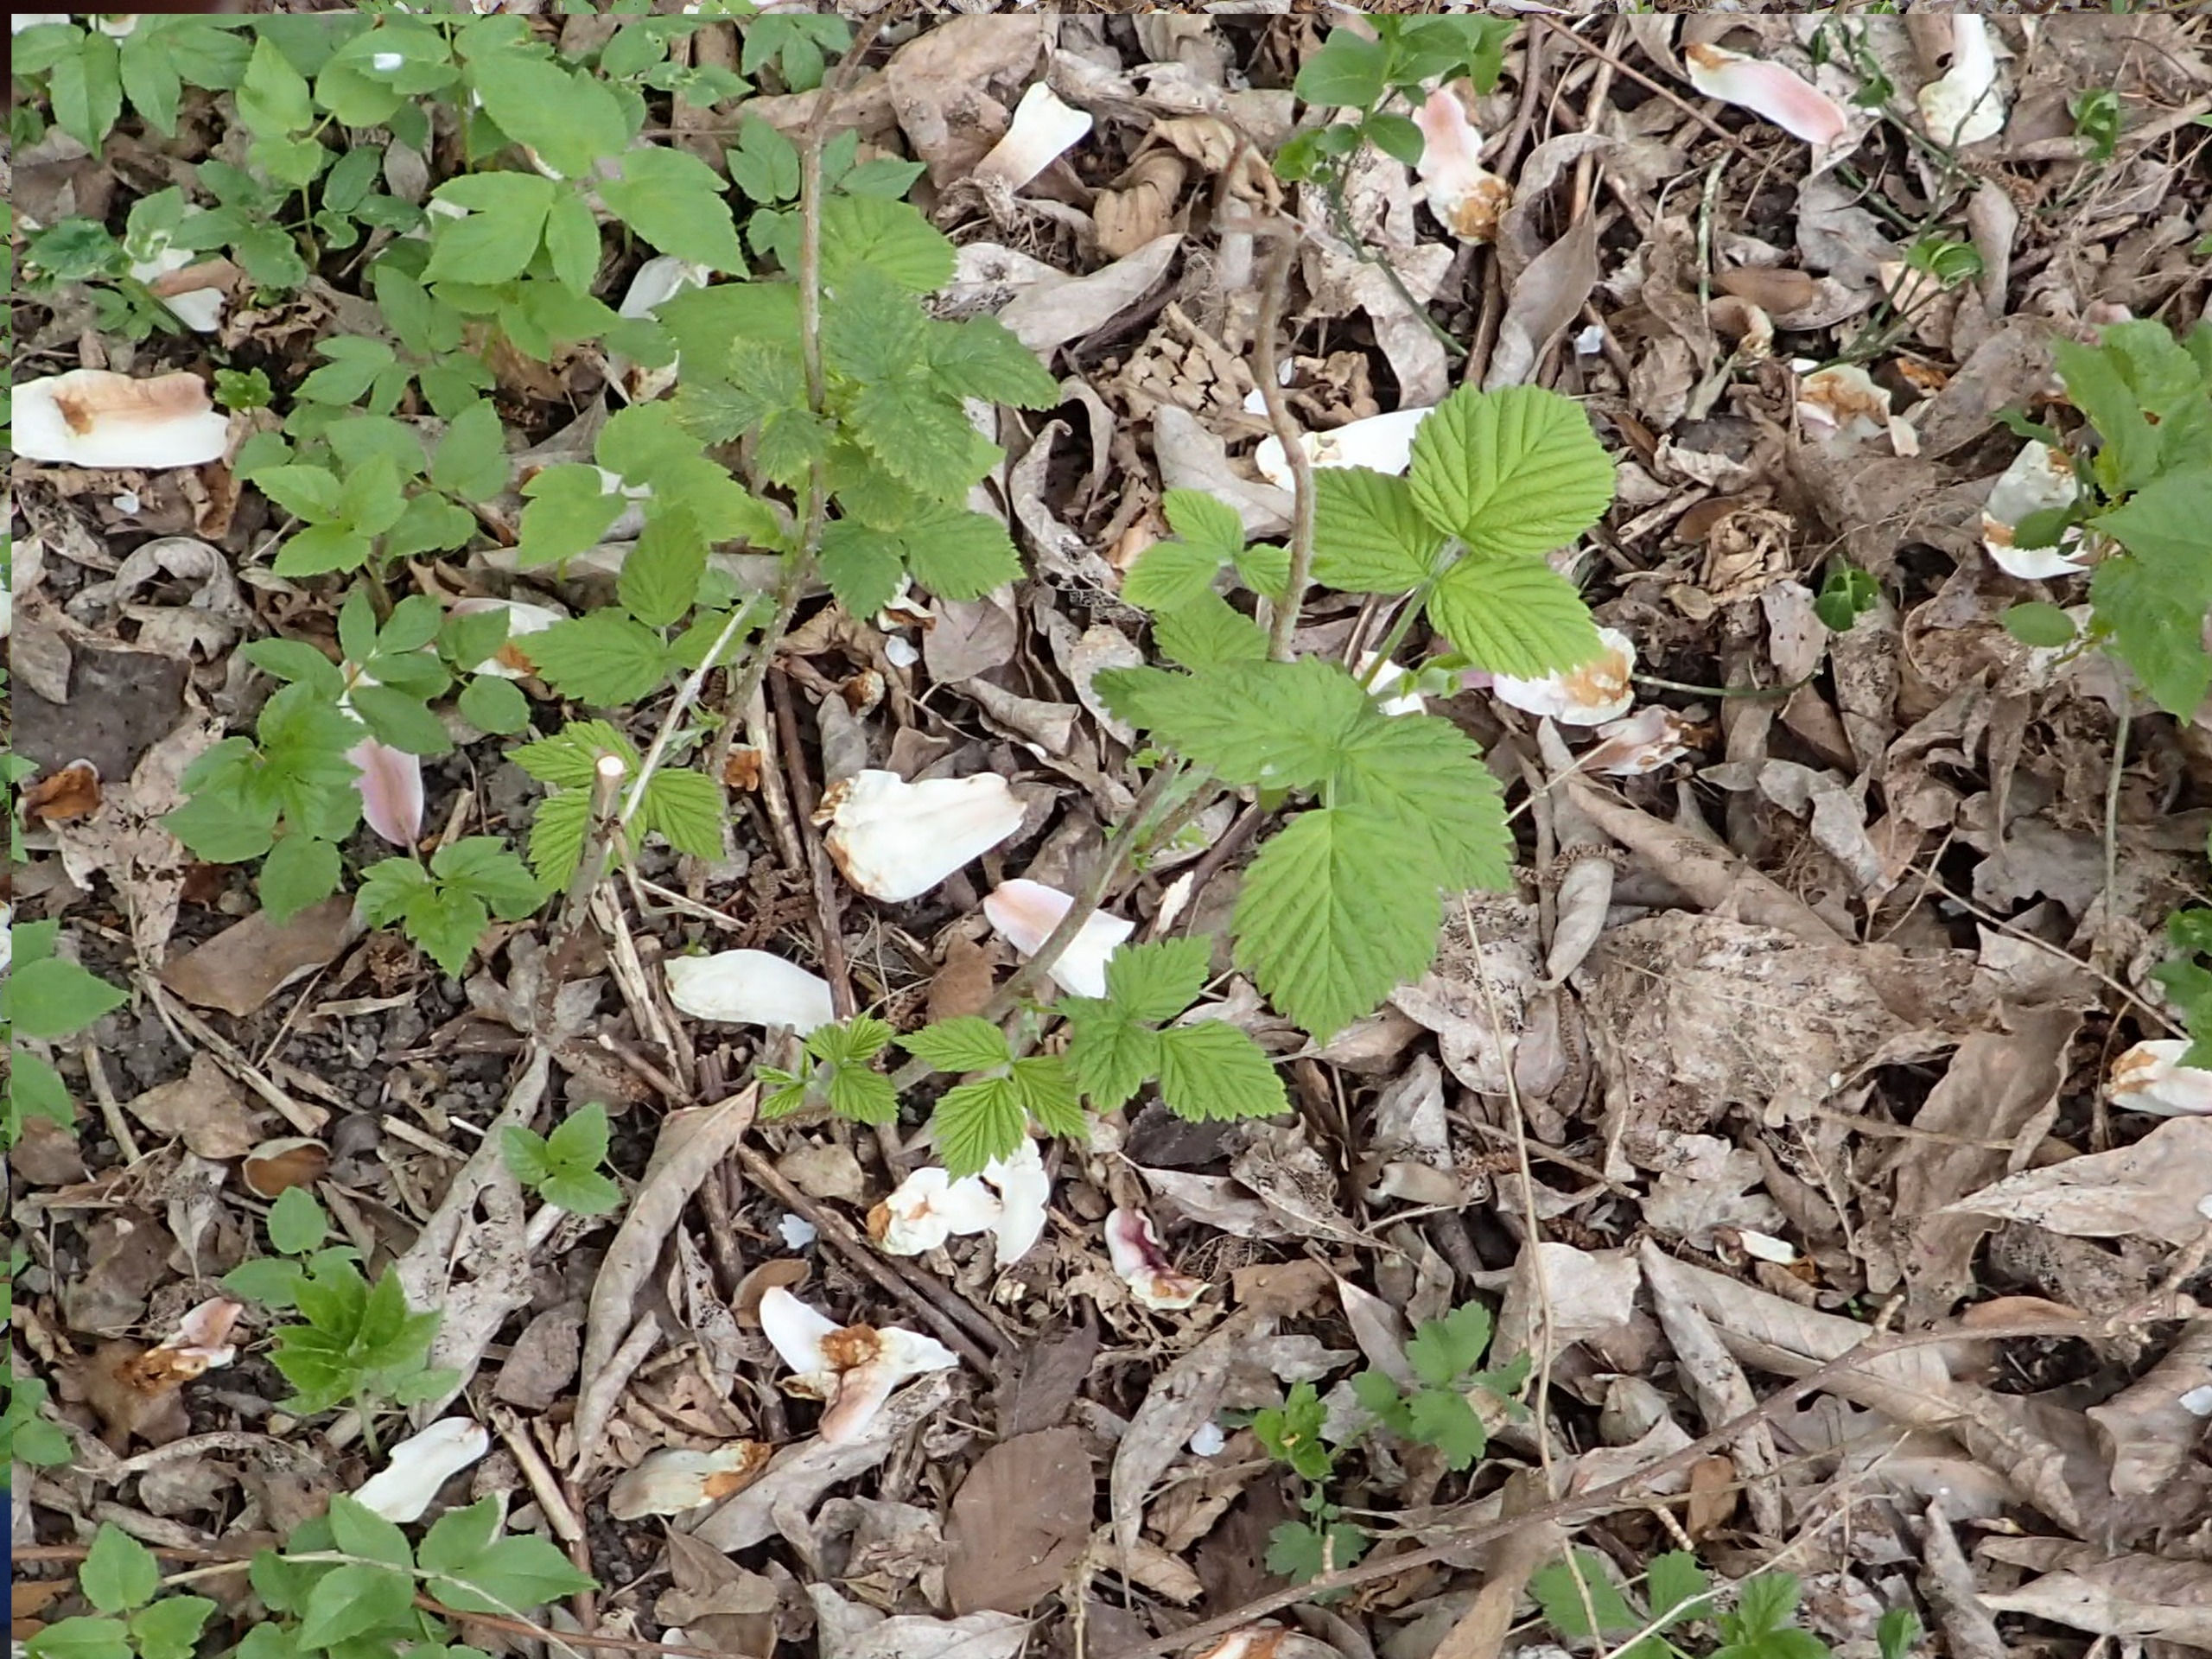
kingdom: Plantae
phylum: Tracheophyta
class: Magnoliopsida
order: Rosales
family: Rosaceae
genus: Rubus
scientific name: Rubus idaeus
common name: Hindbær
